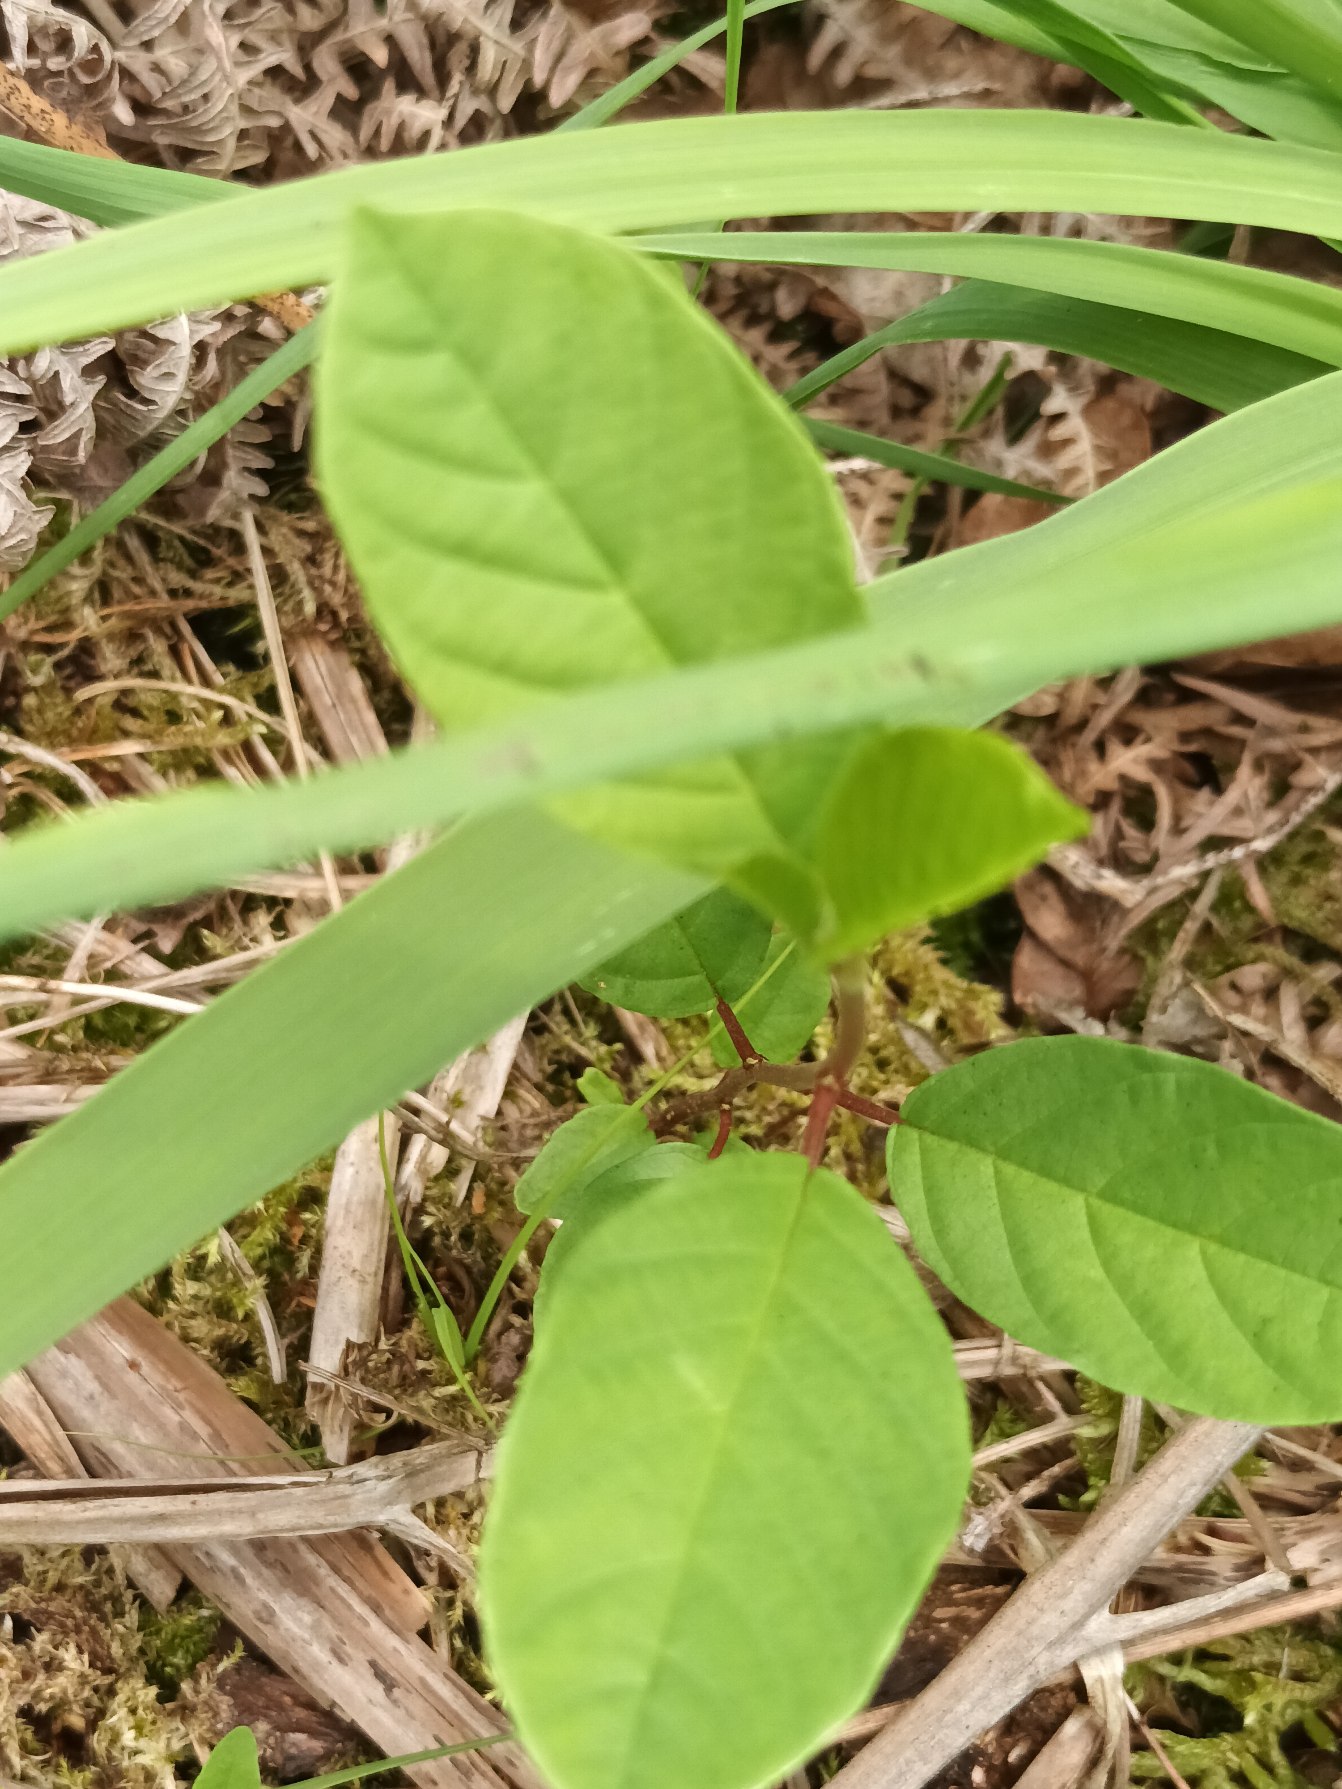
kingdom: Plantae
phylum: Tracheophyta
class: Magnoliopsida
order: Rosales
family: Rhamnaceae
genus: Frangula
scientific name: Frangula alnus
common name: Tørst
